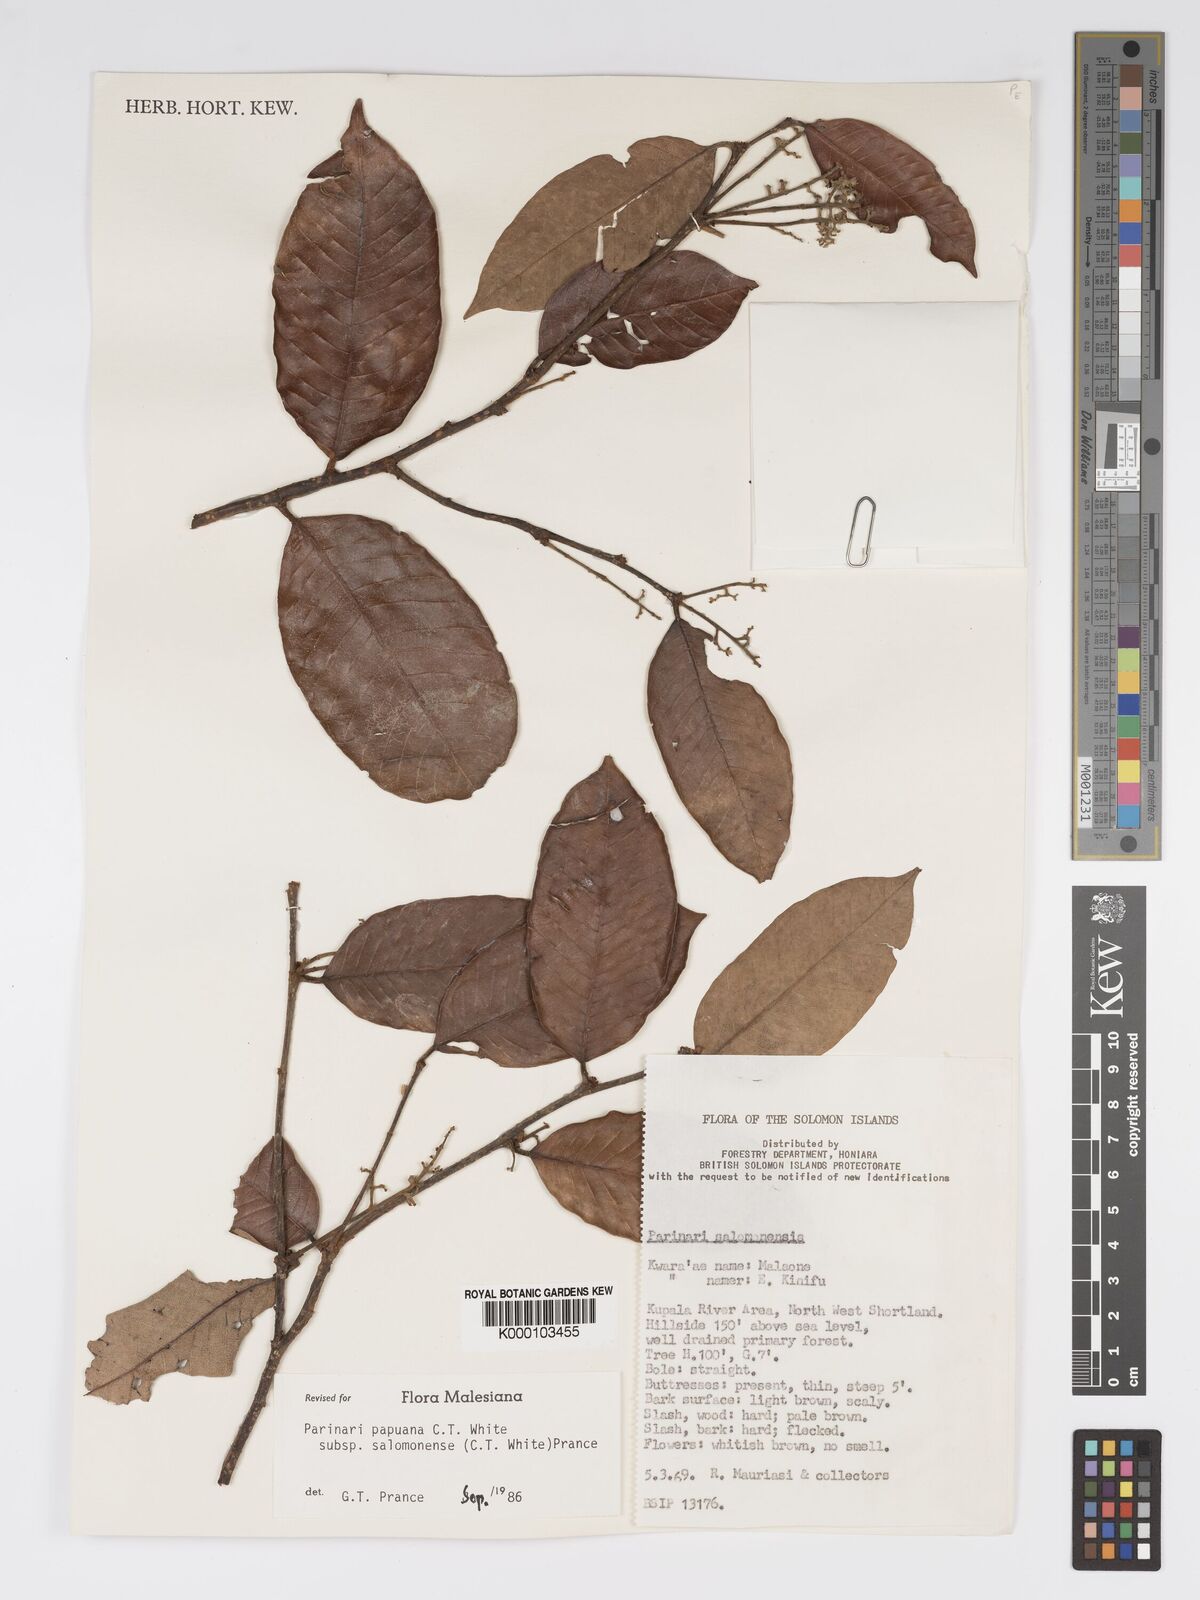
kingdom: Plantae
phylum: Tracheophyta
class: Magnoliopsida
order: Malpighiales
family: Chrysobalanaceae
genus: Parinari
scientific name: Parinari papuana
